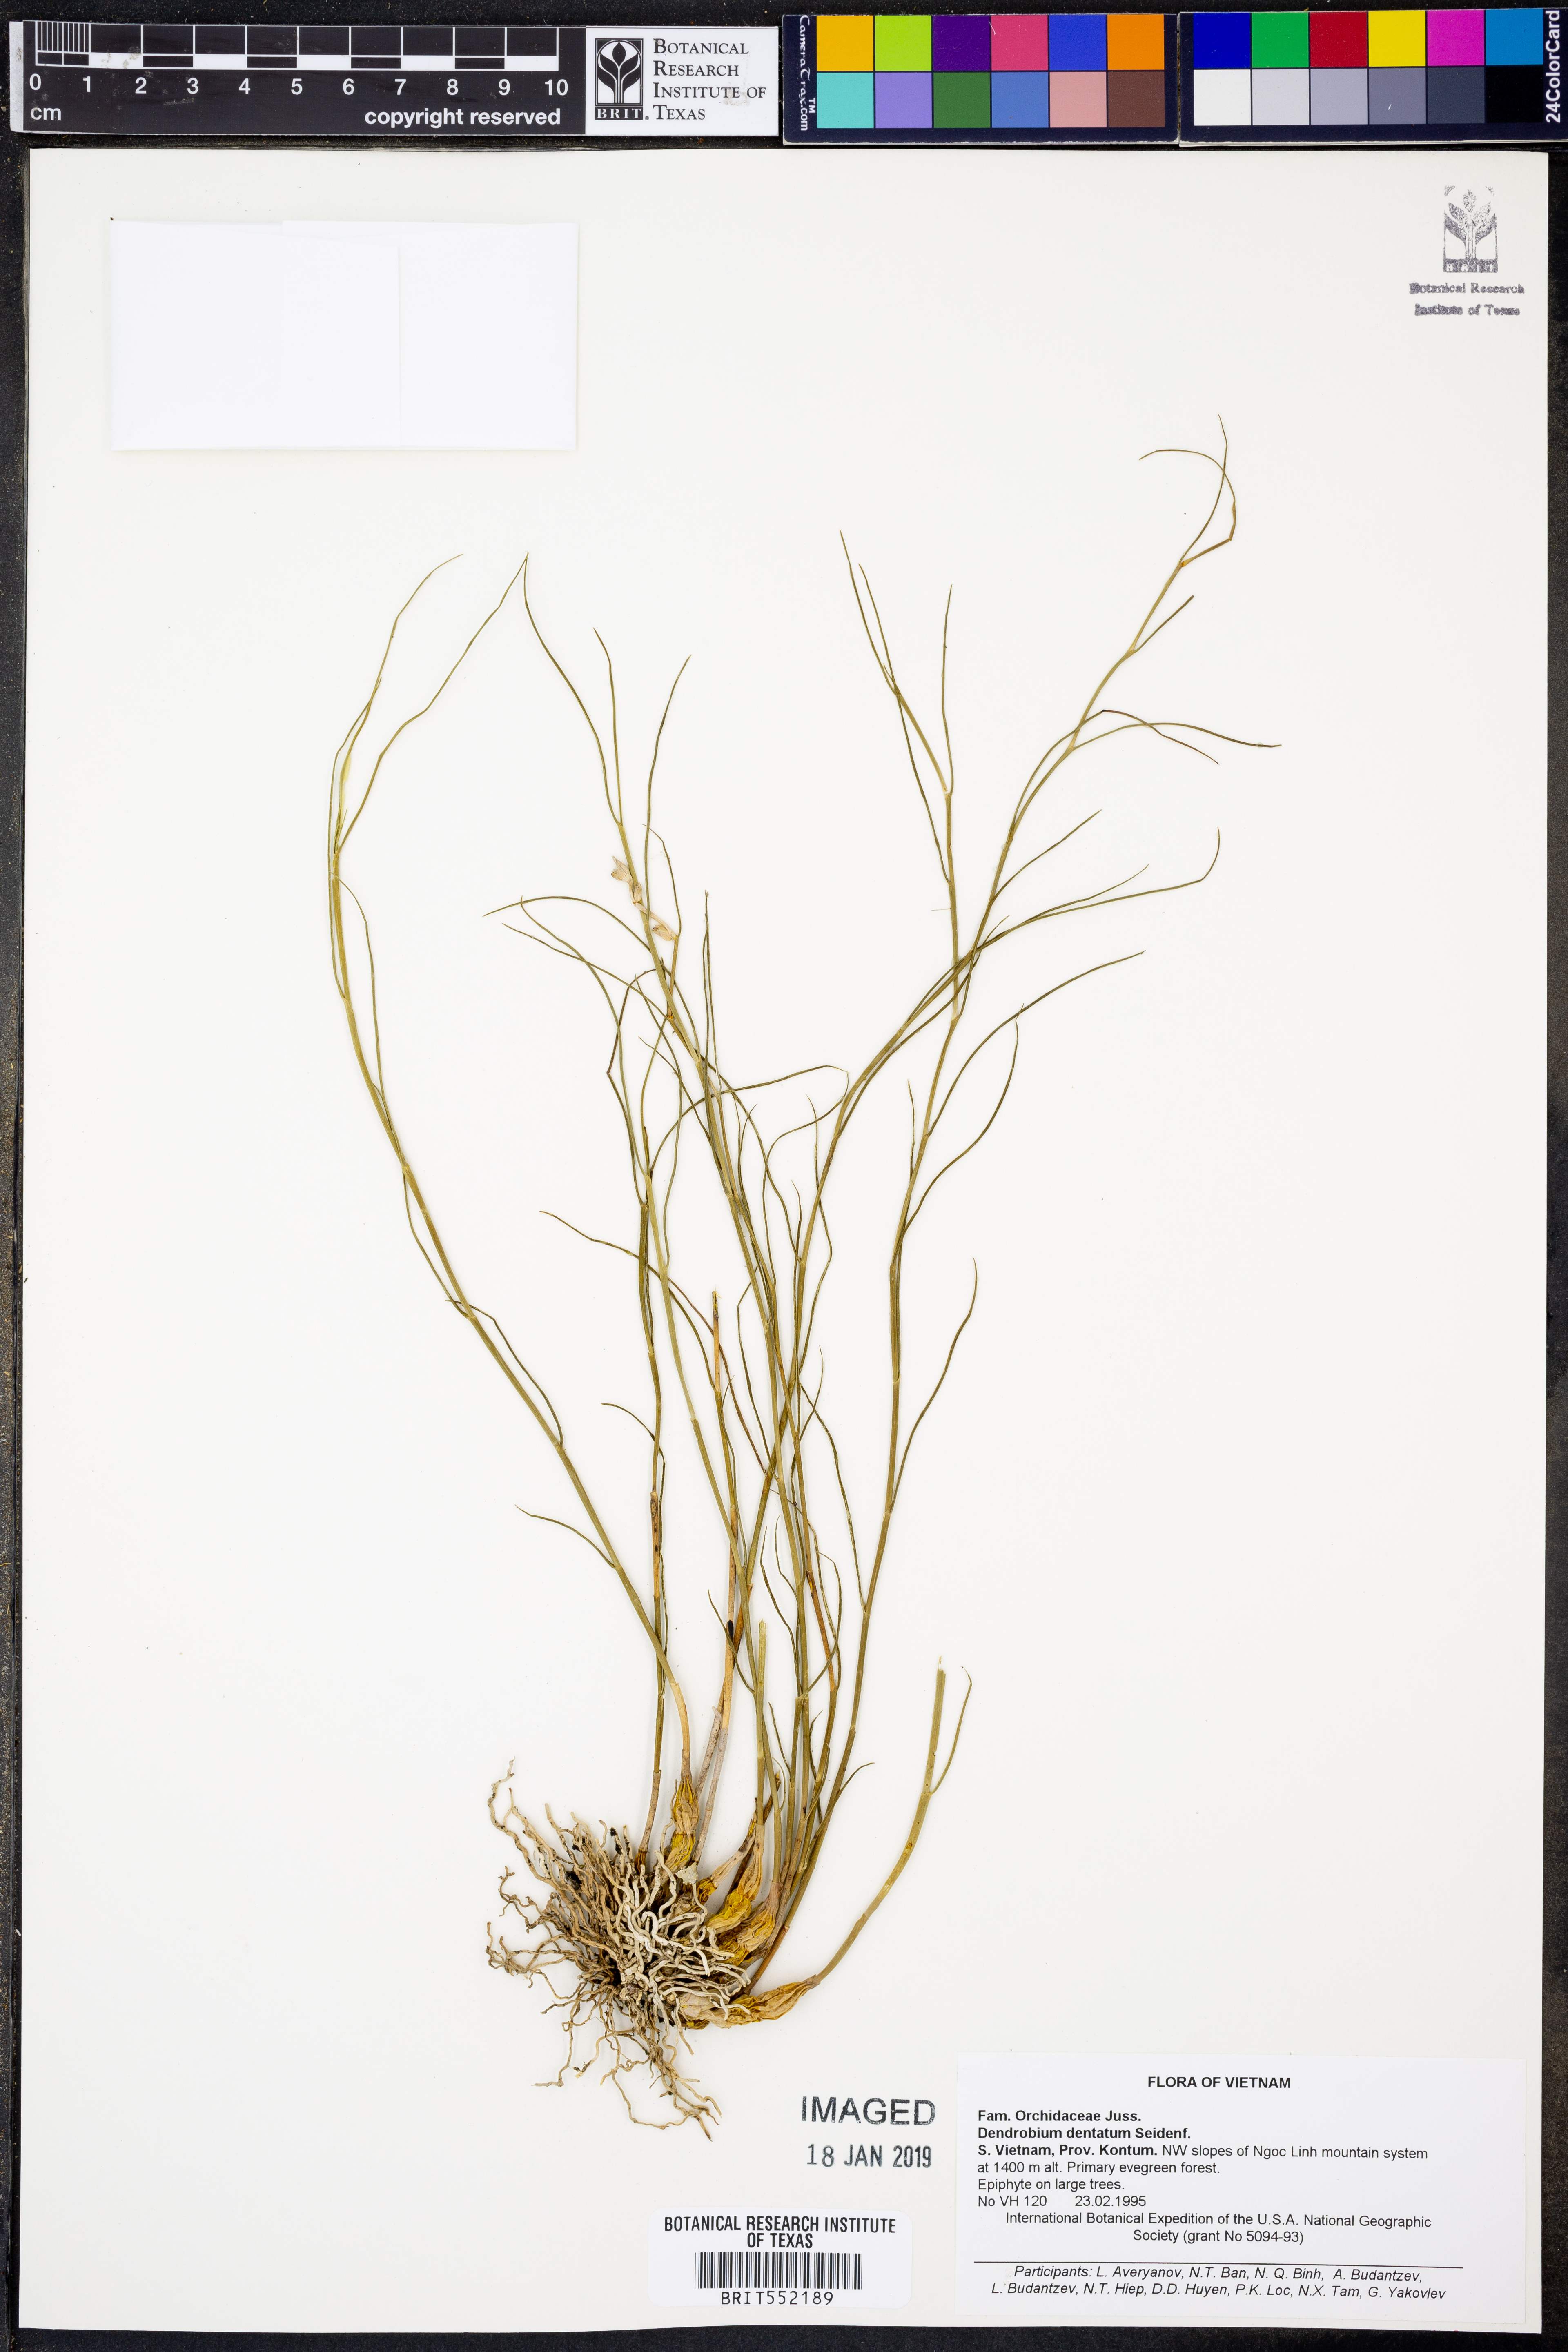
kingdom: Plantae
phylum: Tracheophyta
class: Liliopsida
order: Asparagales
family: Orchidaceae
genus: Dendrobium
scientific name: Dendrobium dentatum
